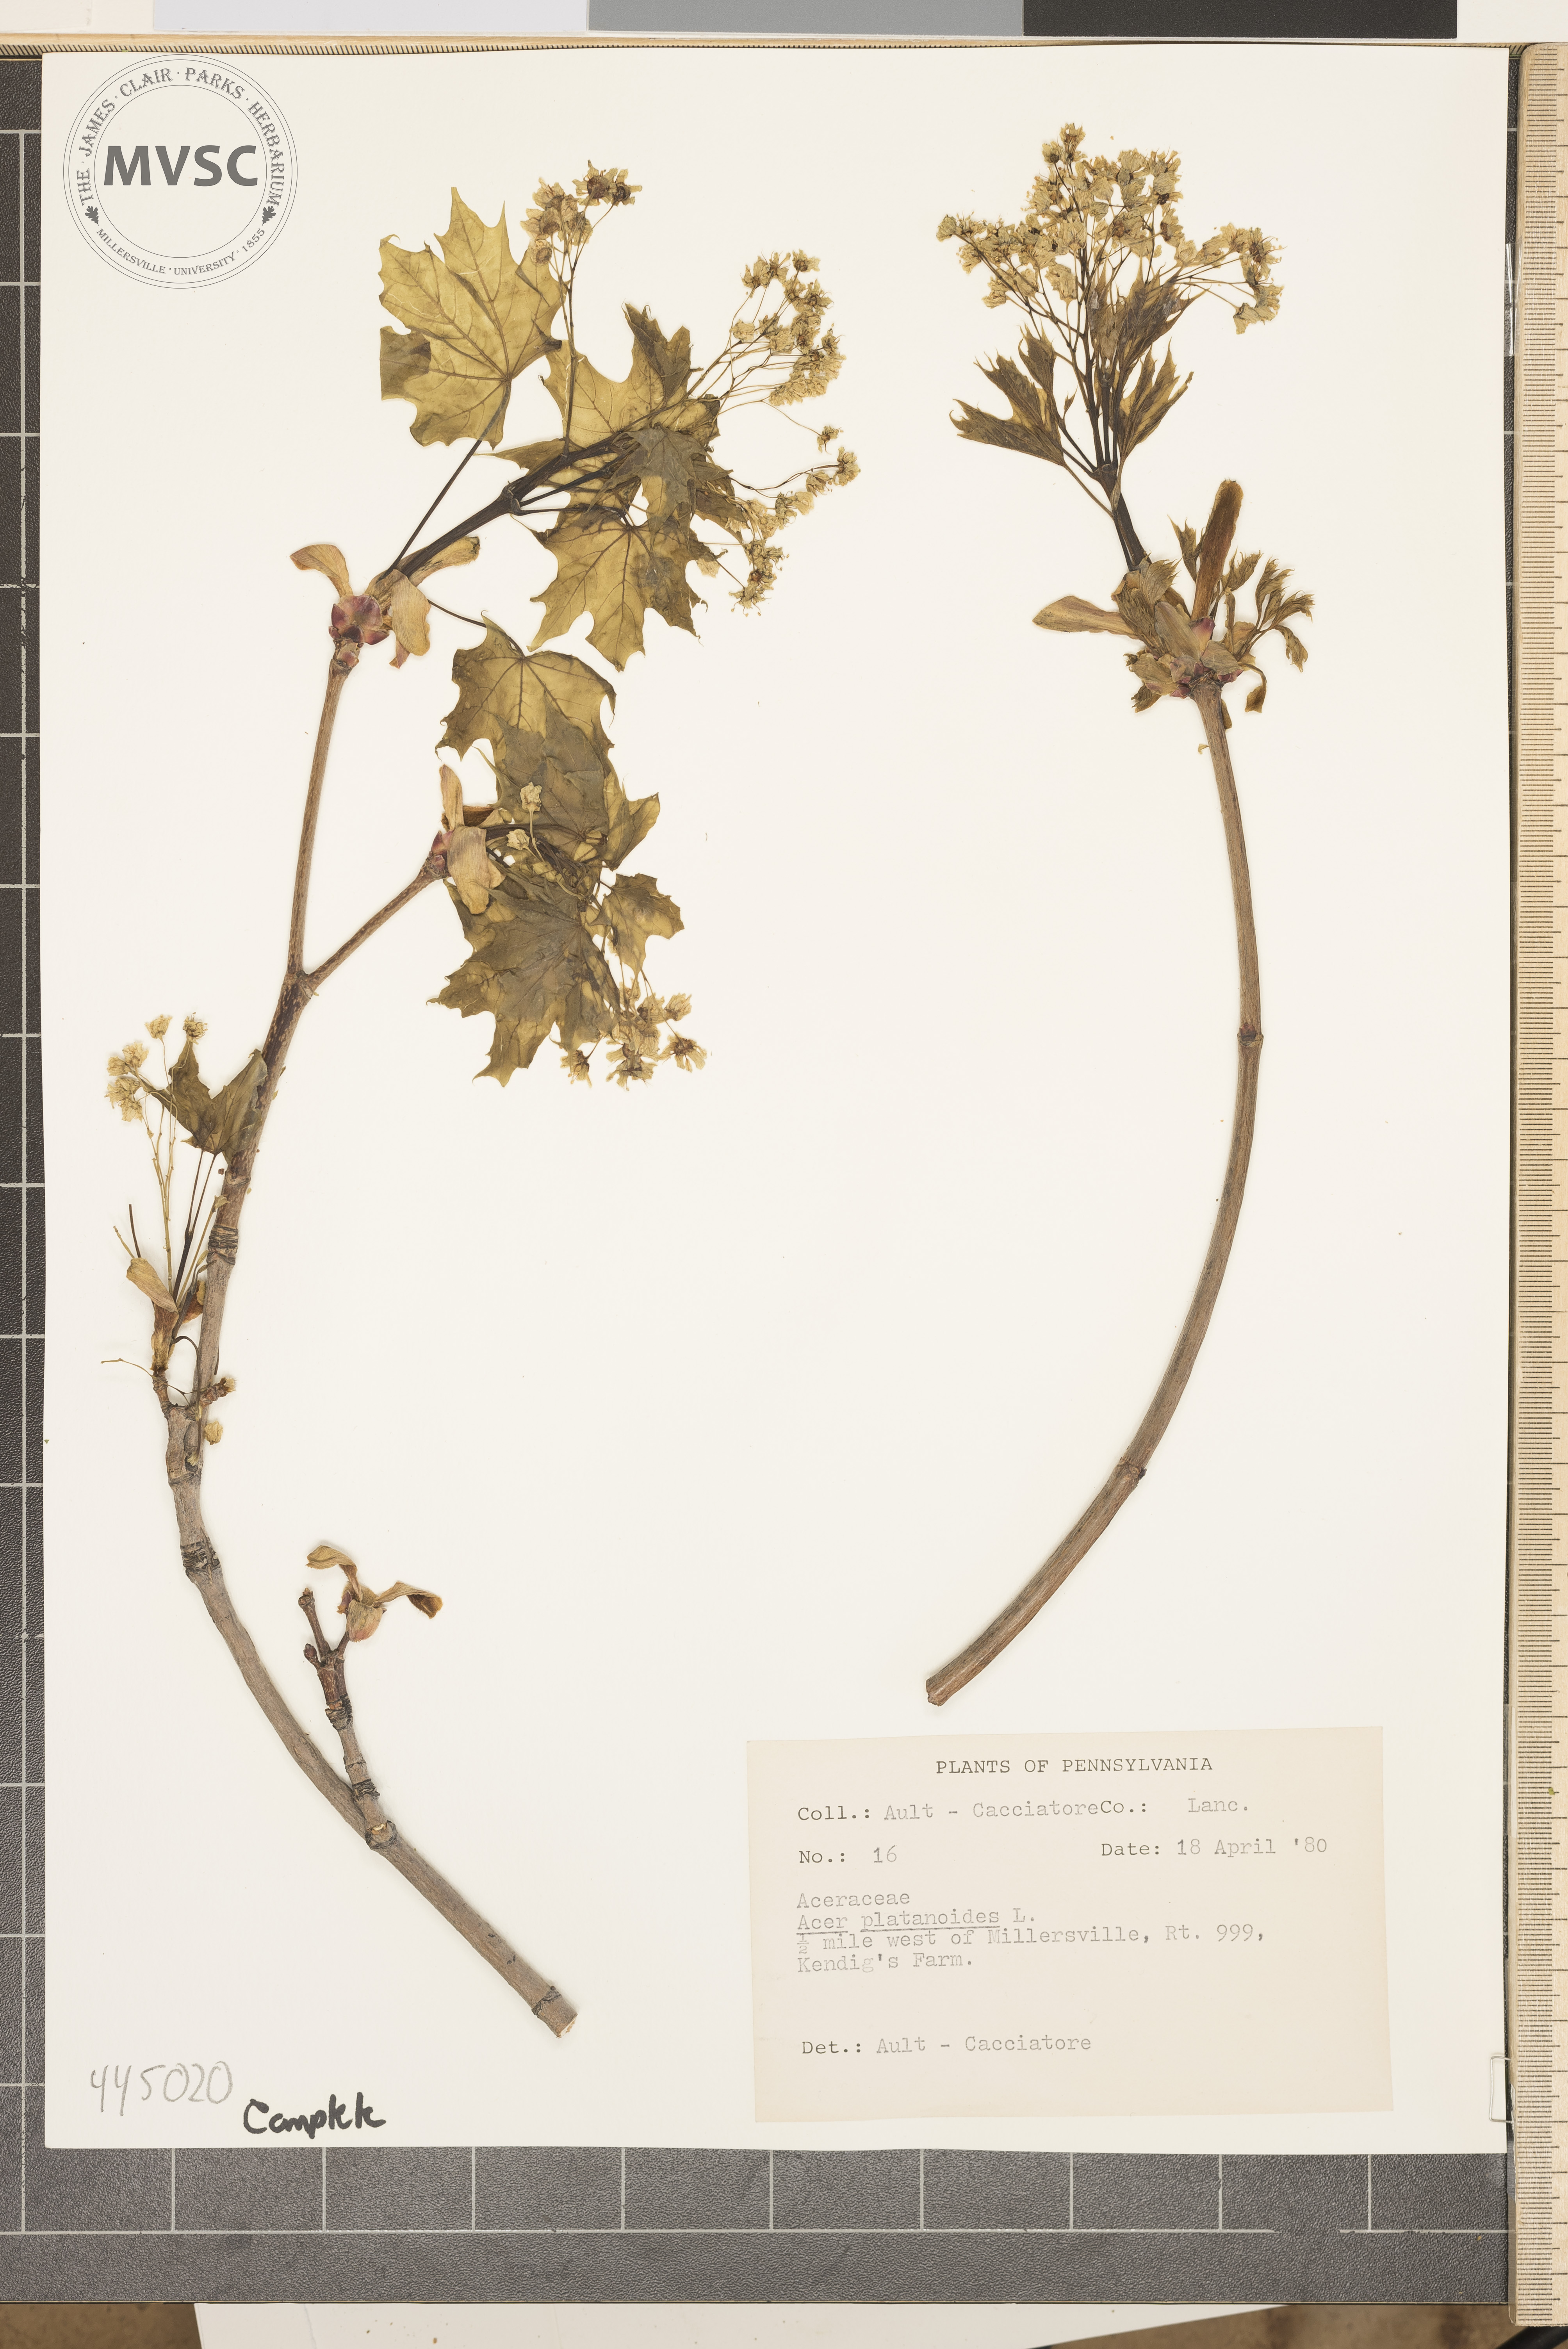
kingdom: Plantae
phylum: Tracheophyta
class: Magnoliopsida
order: Sapindales
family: Sapindaceae
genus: Acer
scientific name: Acer platanoides
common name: Norway maple
